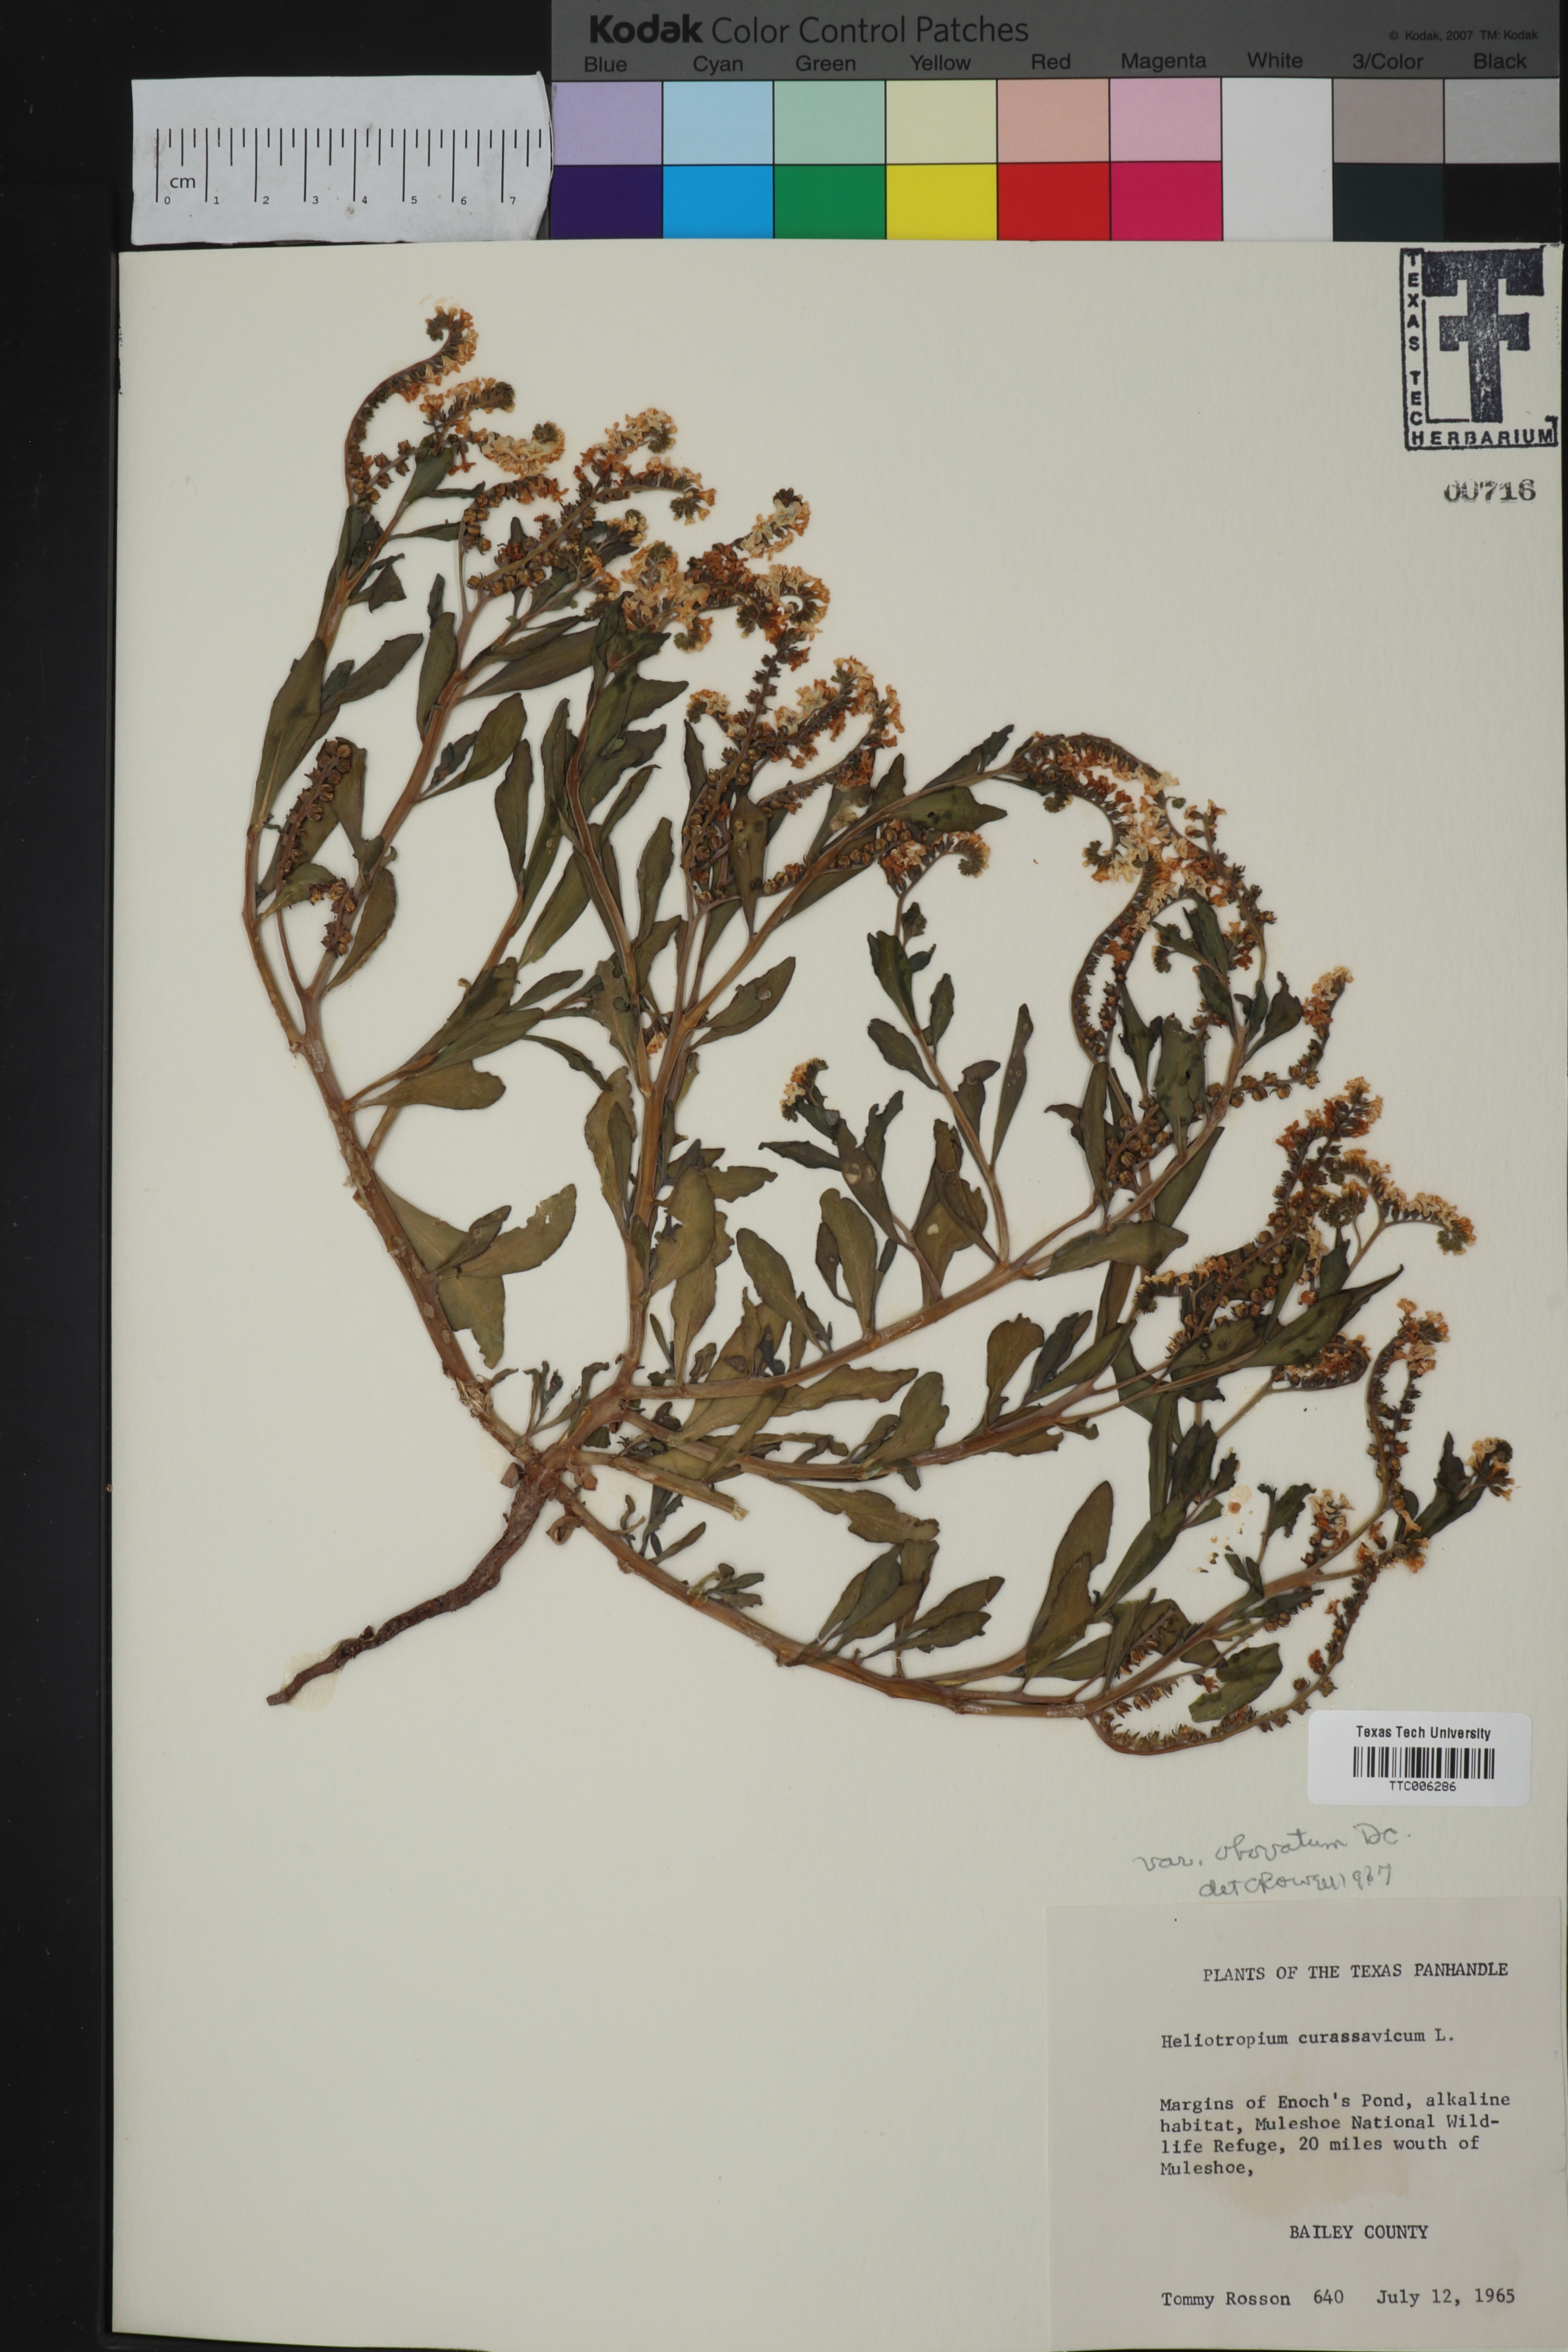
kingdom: Plantae
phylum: Tracheophyta
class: Magnoliopsida
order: Boraginales
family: Heliotropiaceae
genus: Heliotropium
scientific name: Heliotropium curassavicum
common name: Seaside heliotrope
